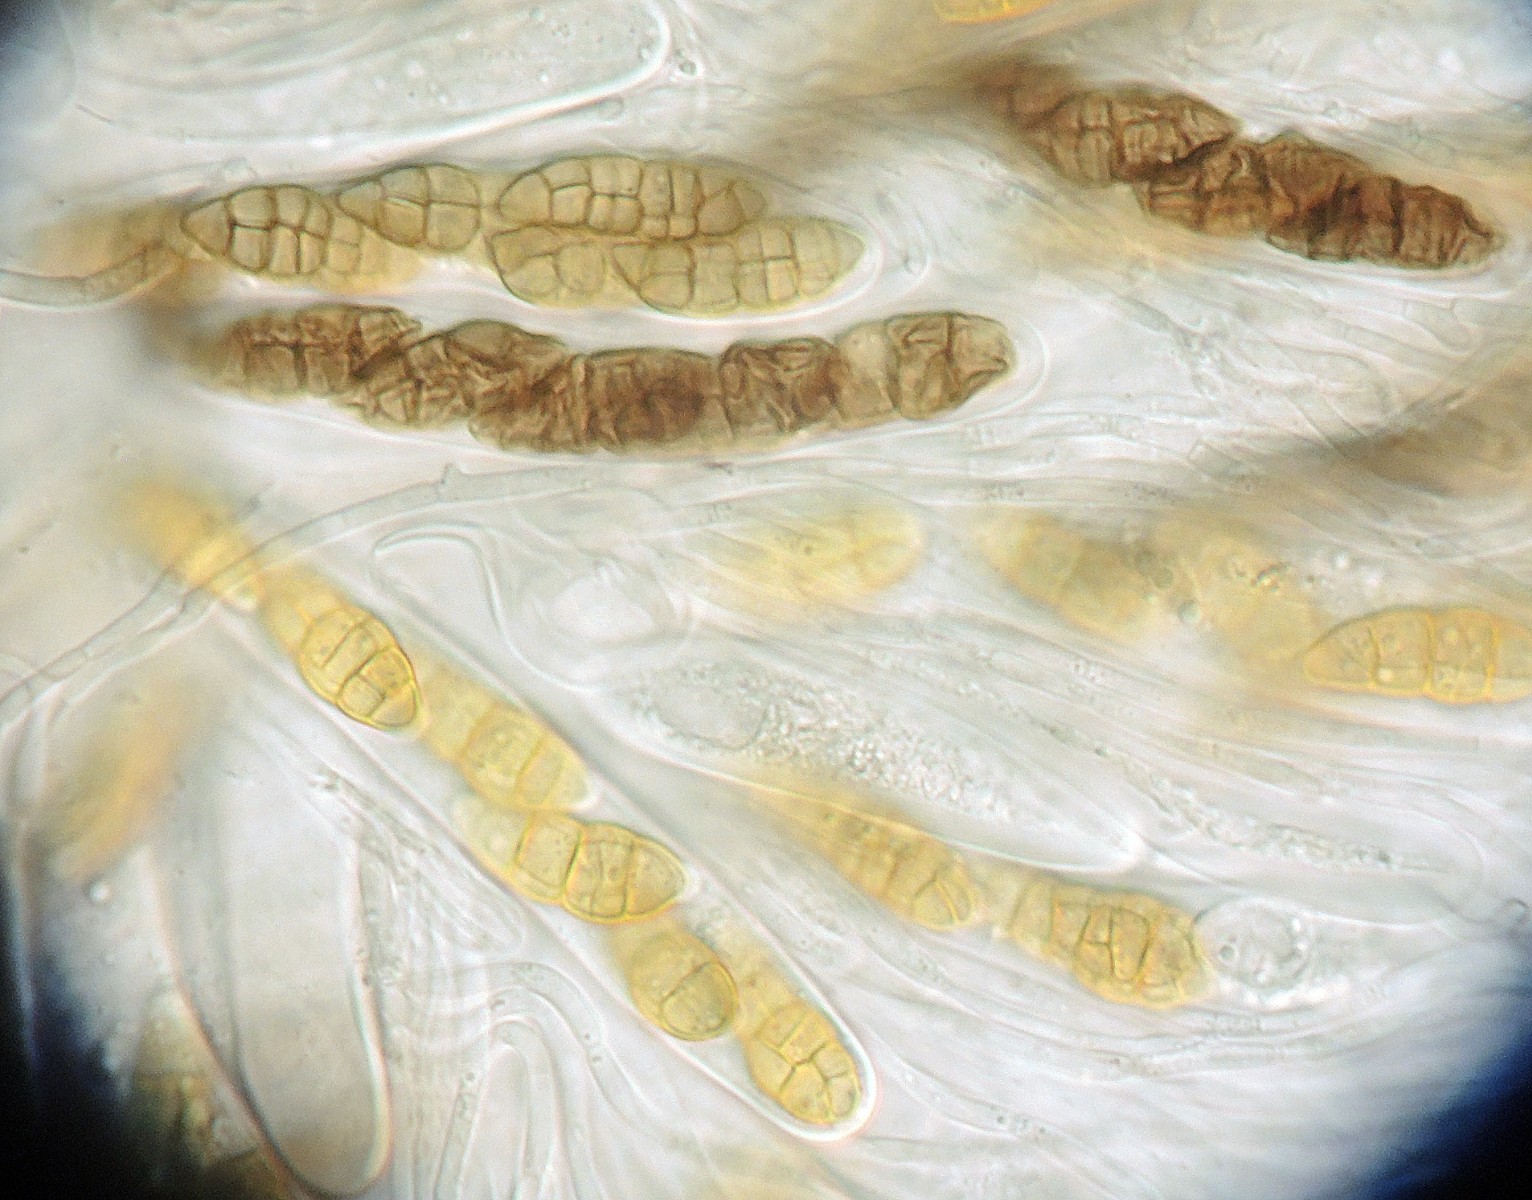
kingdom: Fungi
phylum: Ascomycota
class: Dothideomycetes
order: Pleosporales
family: Pleosporaceae
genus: Stemphylium
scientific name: Stemphylium vesicarium
